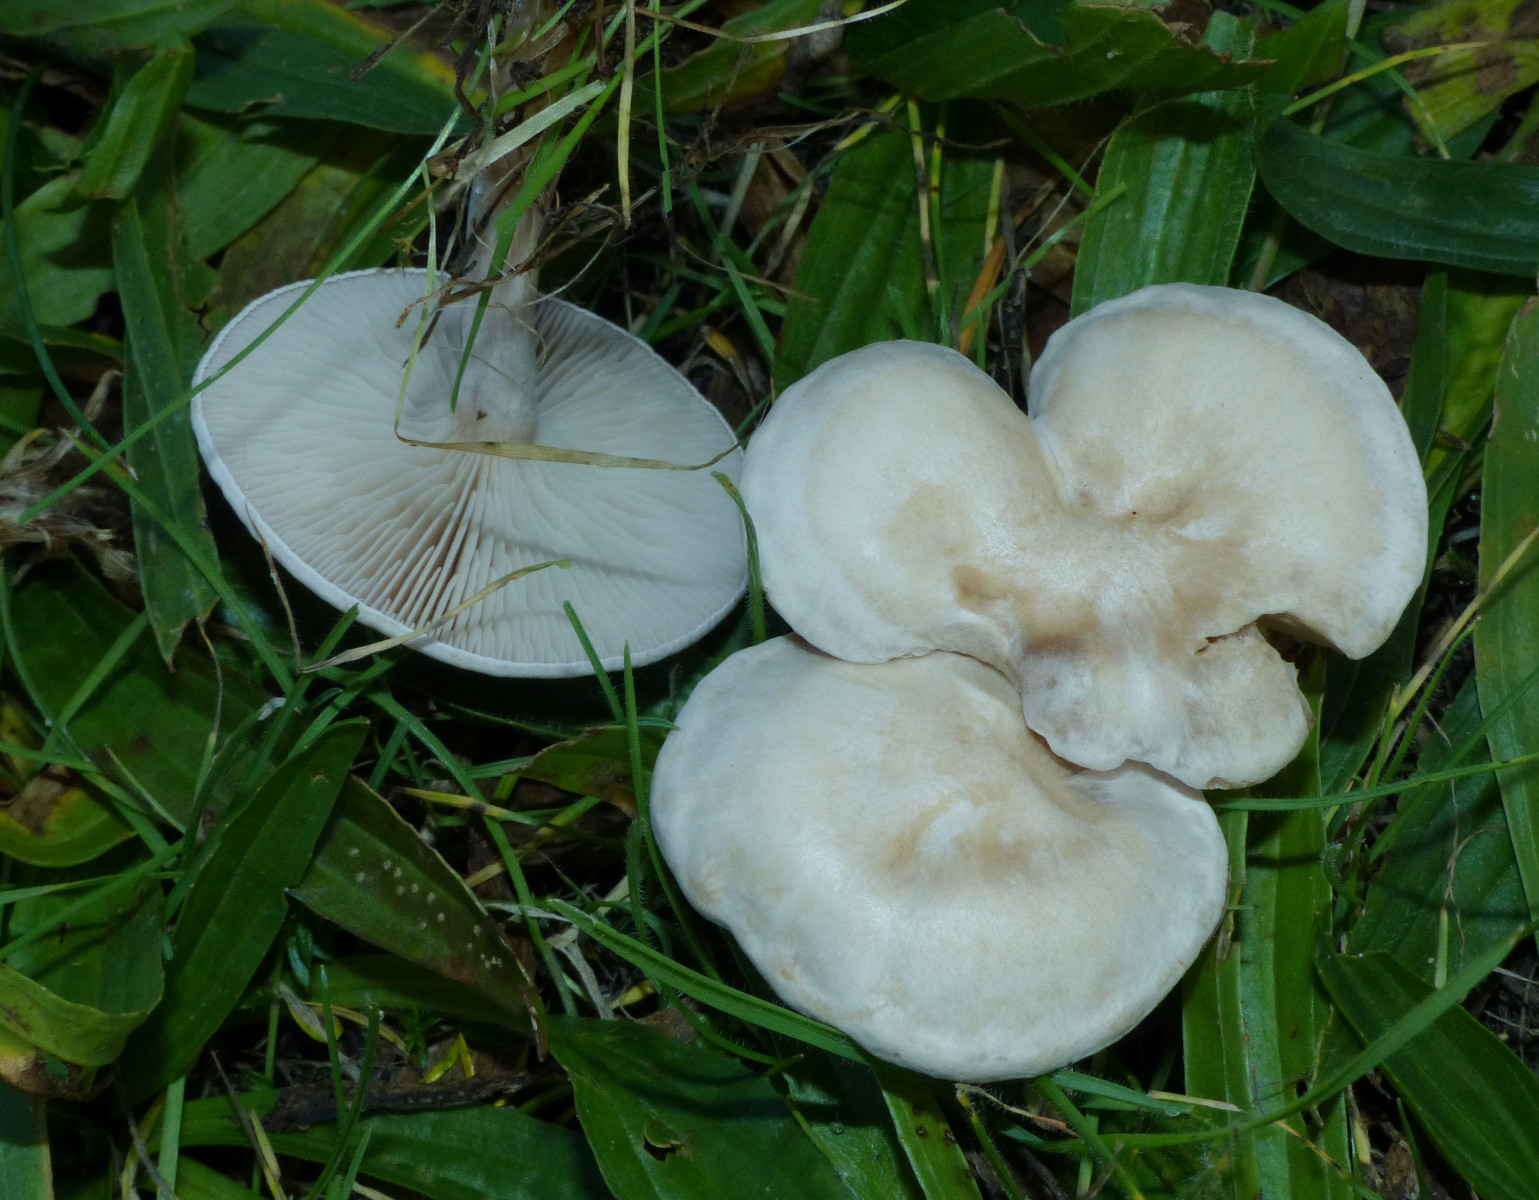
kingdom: Fungi
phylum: Basidiomycota
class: Agaricomycetes
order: Agaricales
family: Tricholomataceae
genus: Clitocybe
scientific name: Clitocybe
